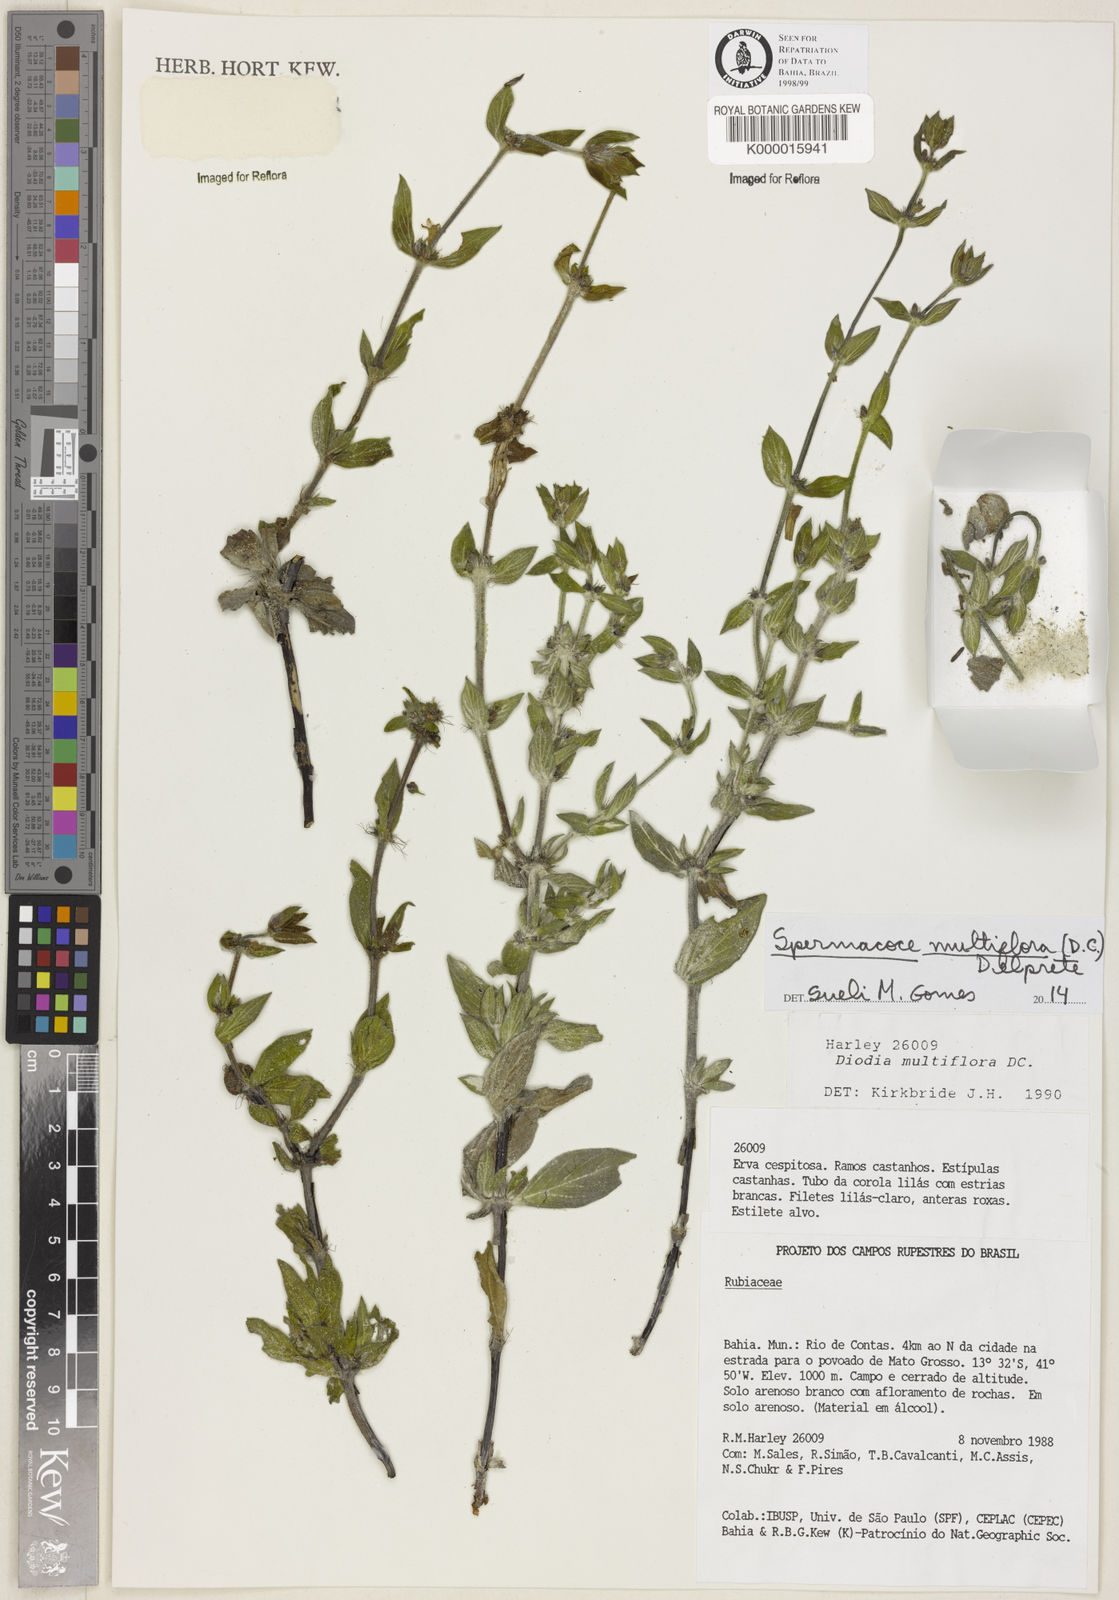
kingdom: Plantae
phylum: Tracheophyta
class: Magnoliopsida
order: Gentianales
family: Rubiaceae
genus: Spermacoce
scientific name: Spermacoce multiflora
